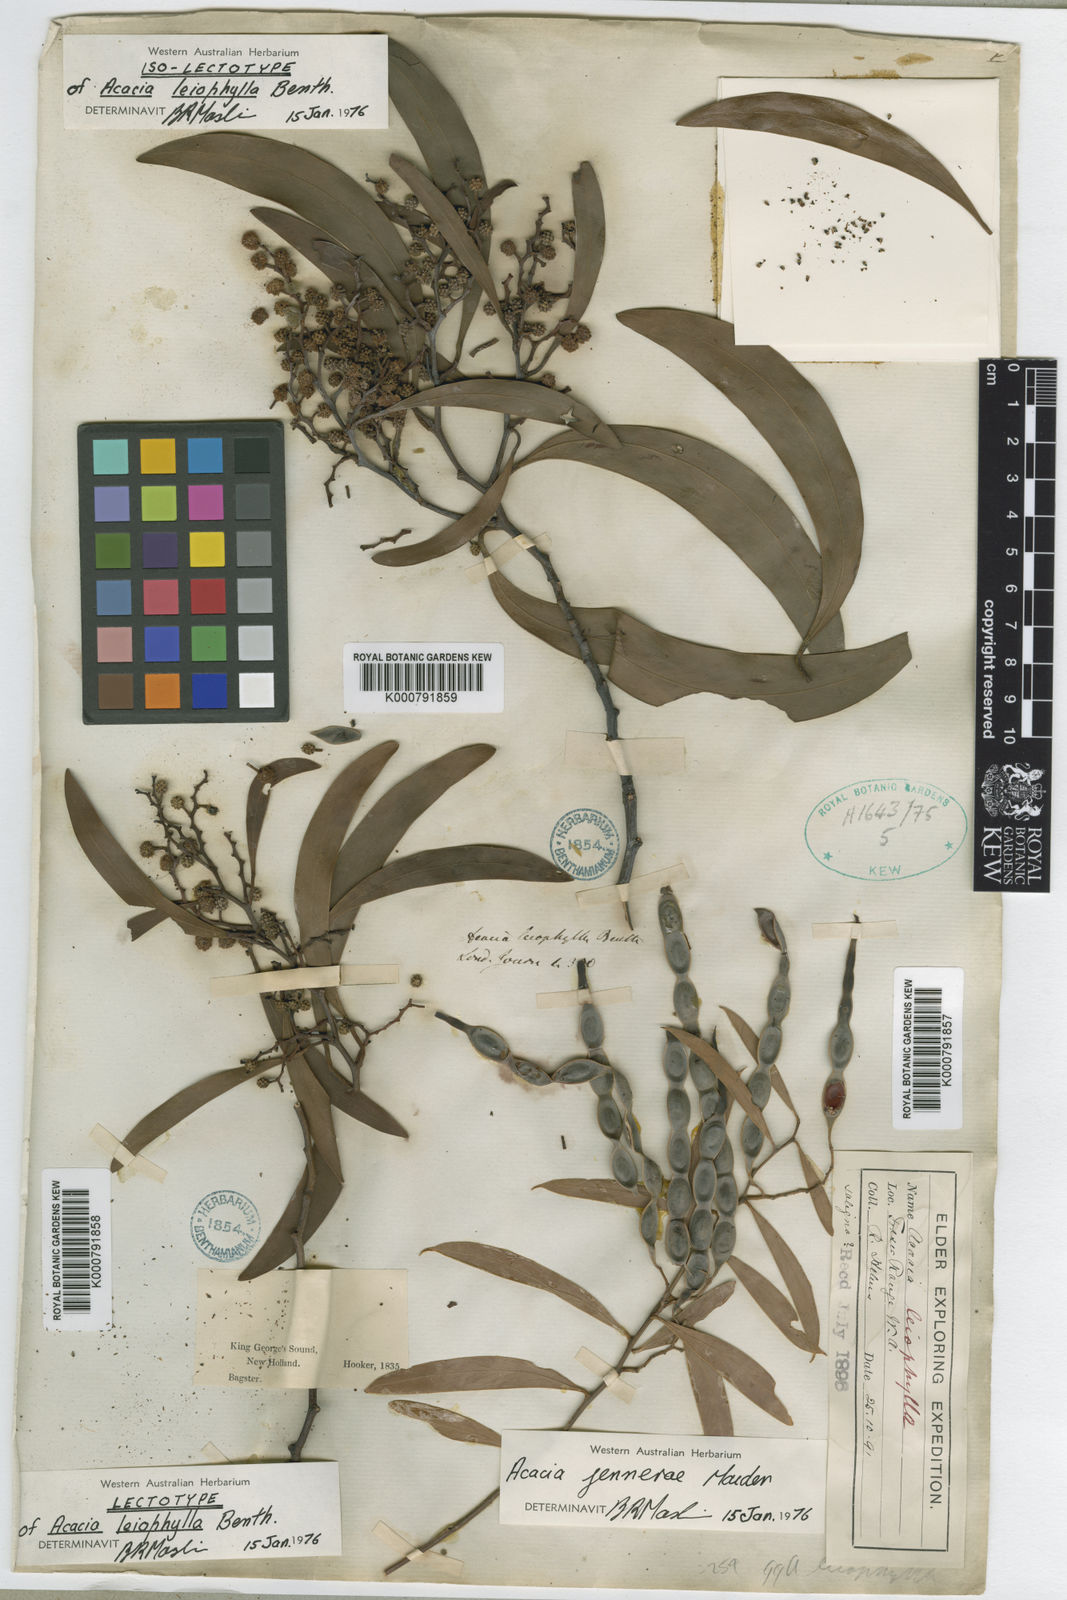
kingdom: Plantae
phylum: Tracheophyta
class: Magnoliopsida
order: Fabales
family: Fabaceae
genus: Acacia
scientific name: Acacia
